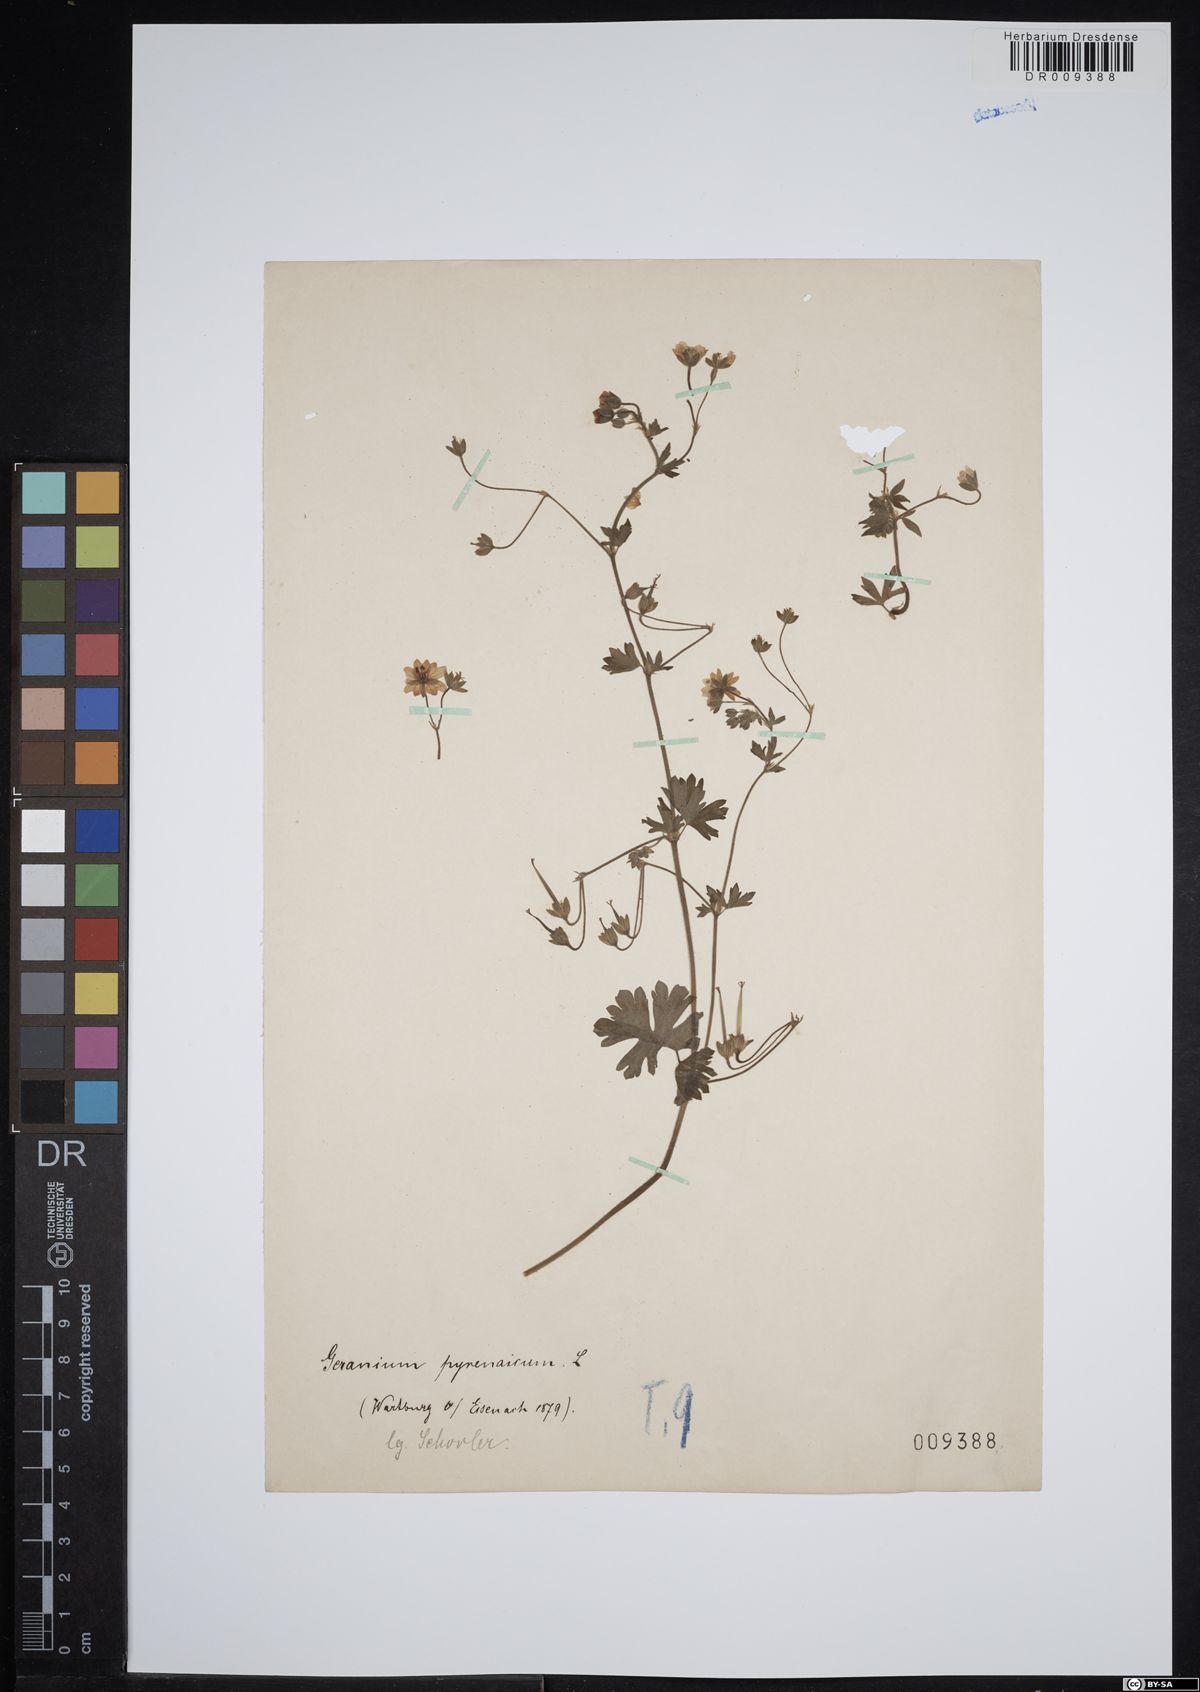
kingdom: Plantae
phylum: Tracheophyta
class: Magnoliopsida
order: Geraniales
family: Geraniaceae
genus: Geranium
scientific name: Geranium pyrenaicum
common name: Hedgerow crane's-bill
